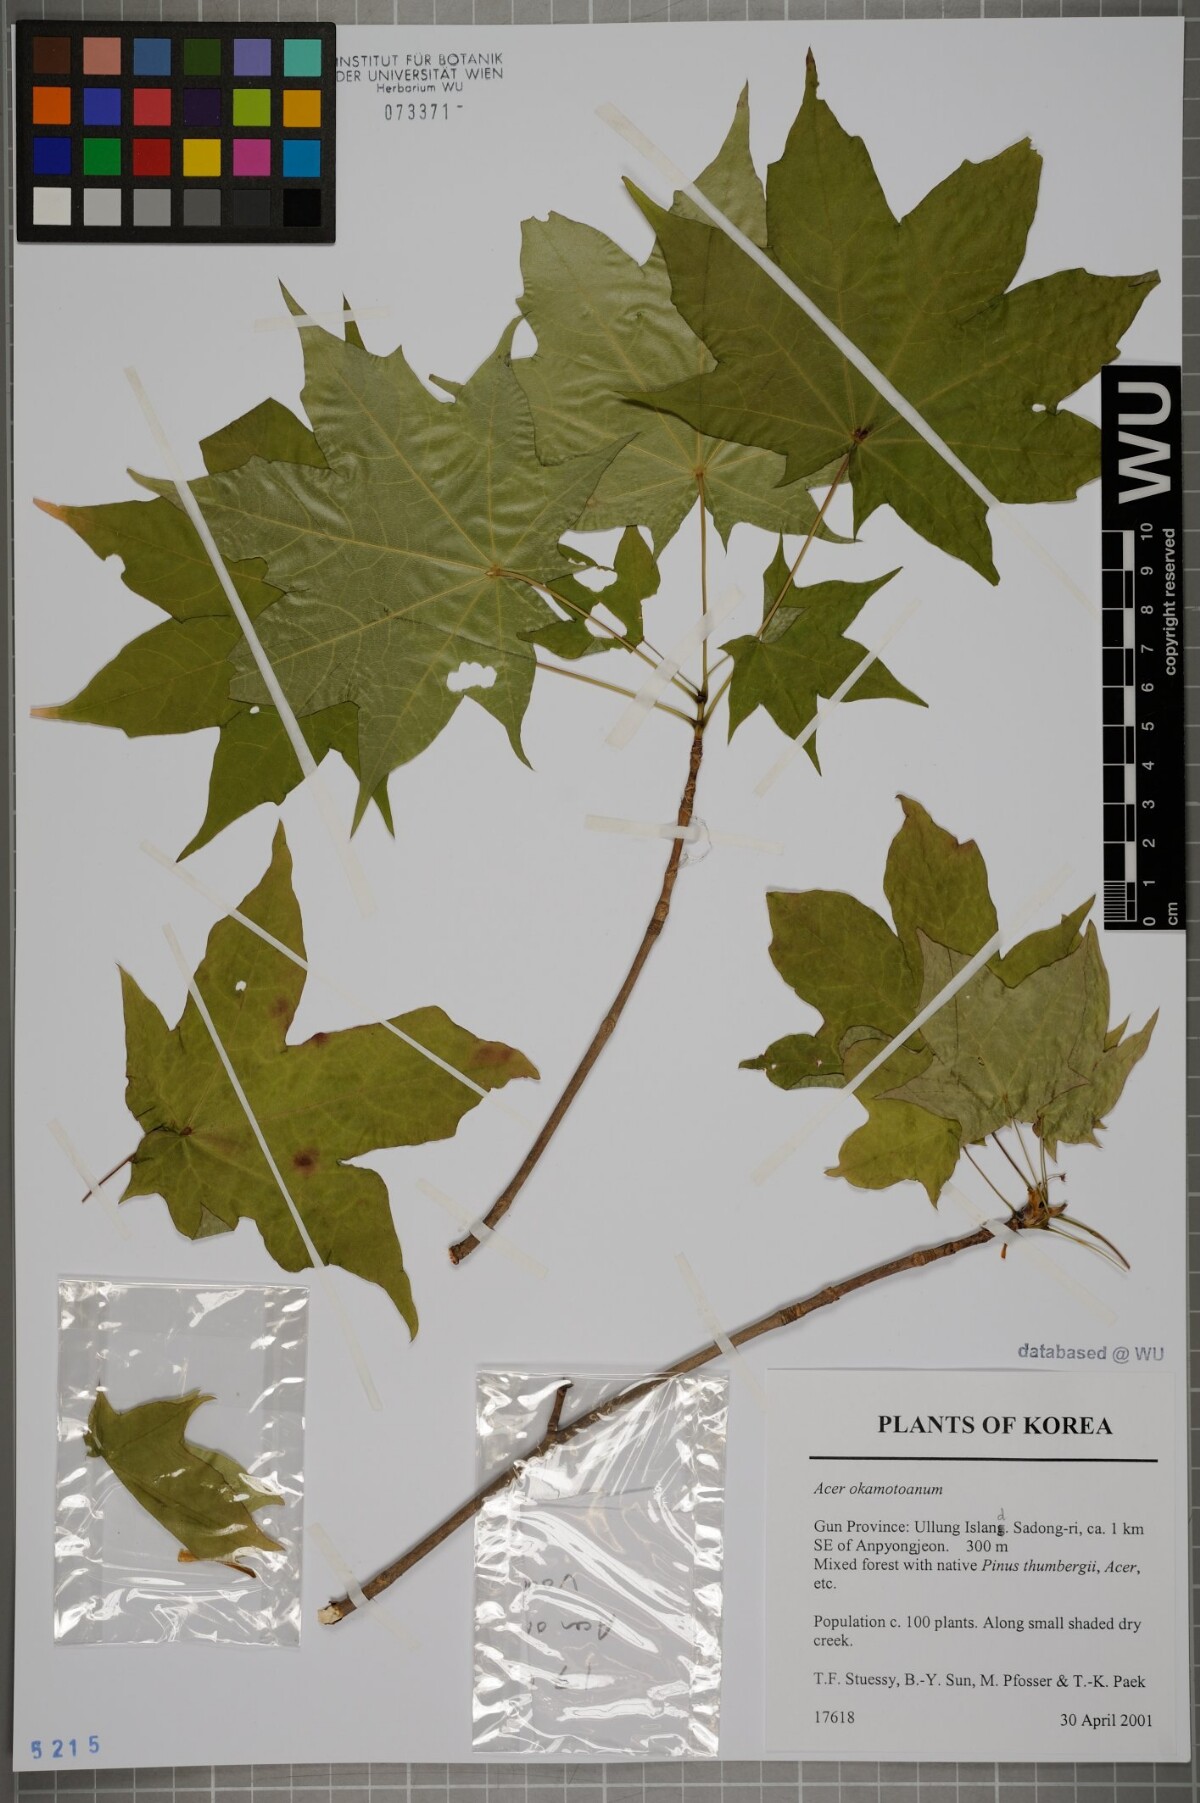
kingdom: Plantae
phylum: Tracheophyta
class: Magnoliopsida
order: Sapindales
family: Sapindaceae
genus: Acer
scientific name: Acer pictum
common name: The painted maple
